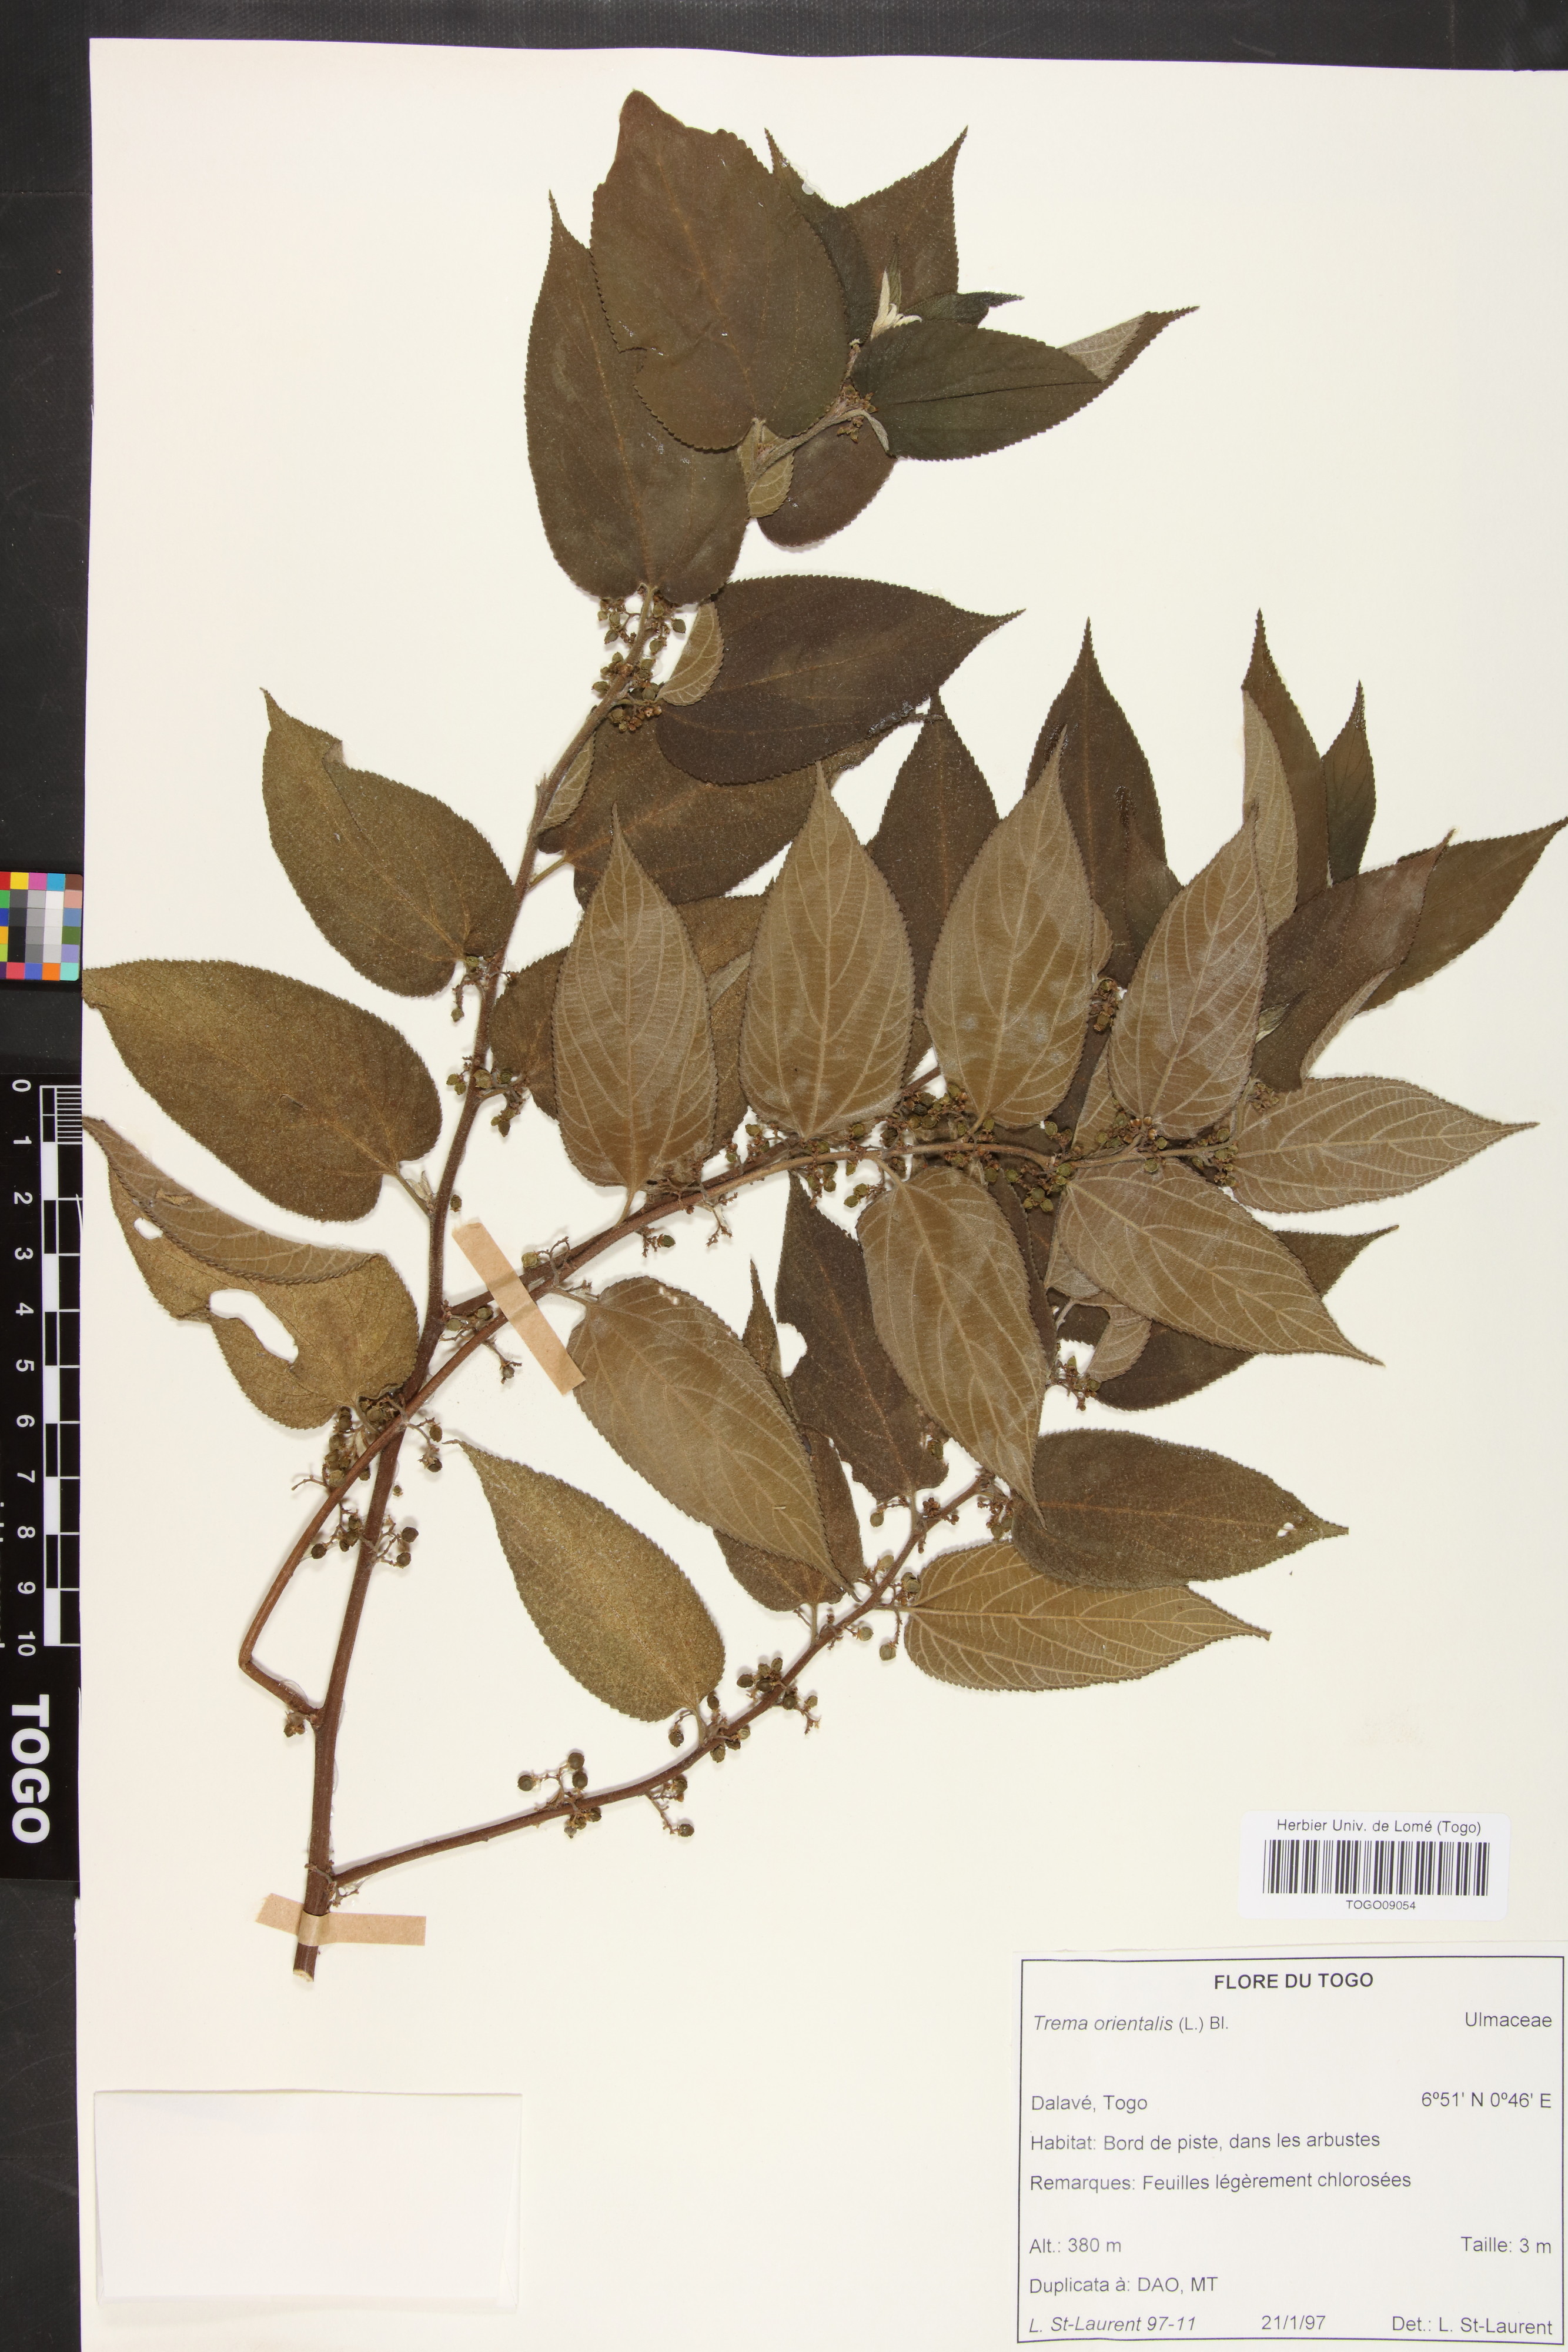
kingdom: Plantae
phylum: Tracheophyta
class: Magnoliopsida
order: Rosales
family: Cannabaceae
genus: Trema
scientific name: Trema orientale
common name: Indian charcoal tree
